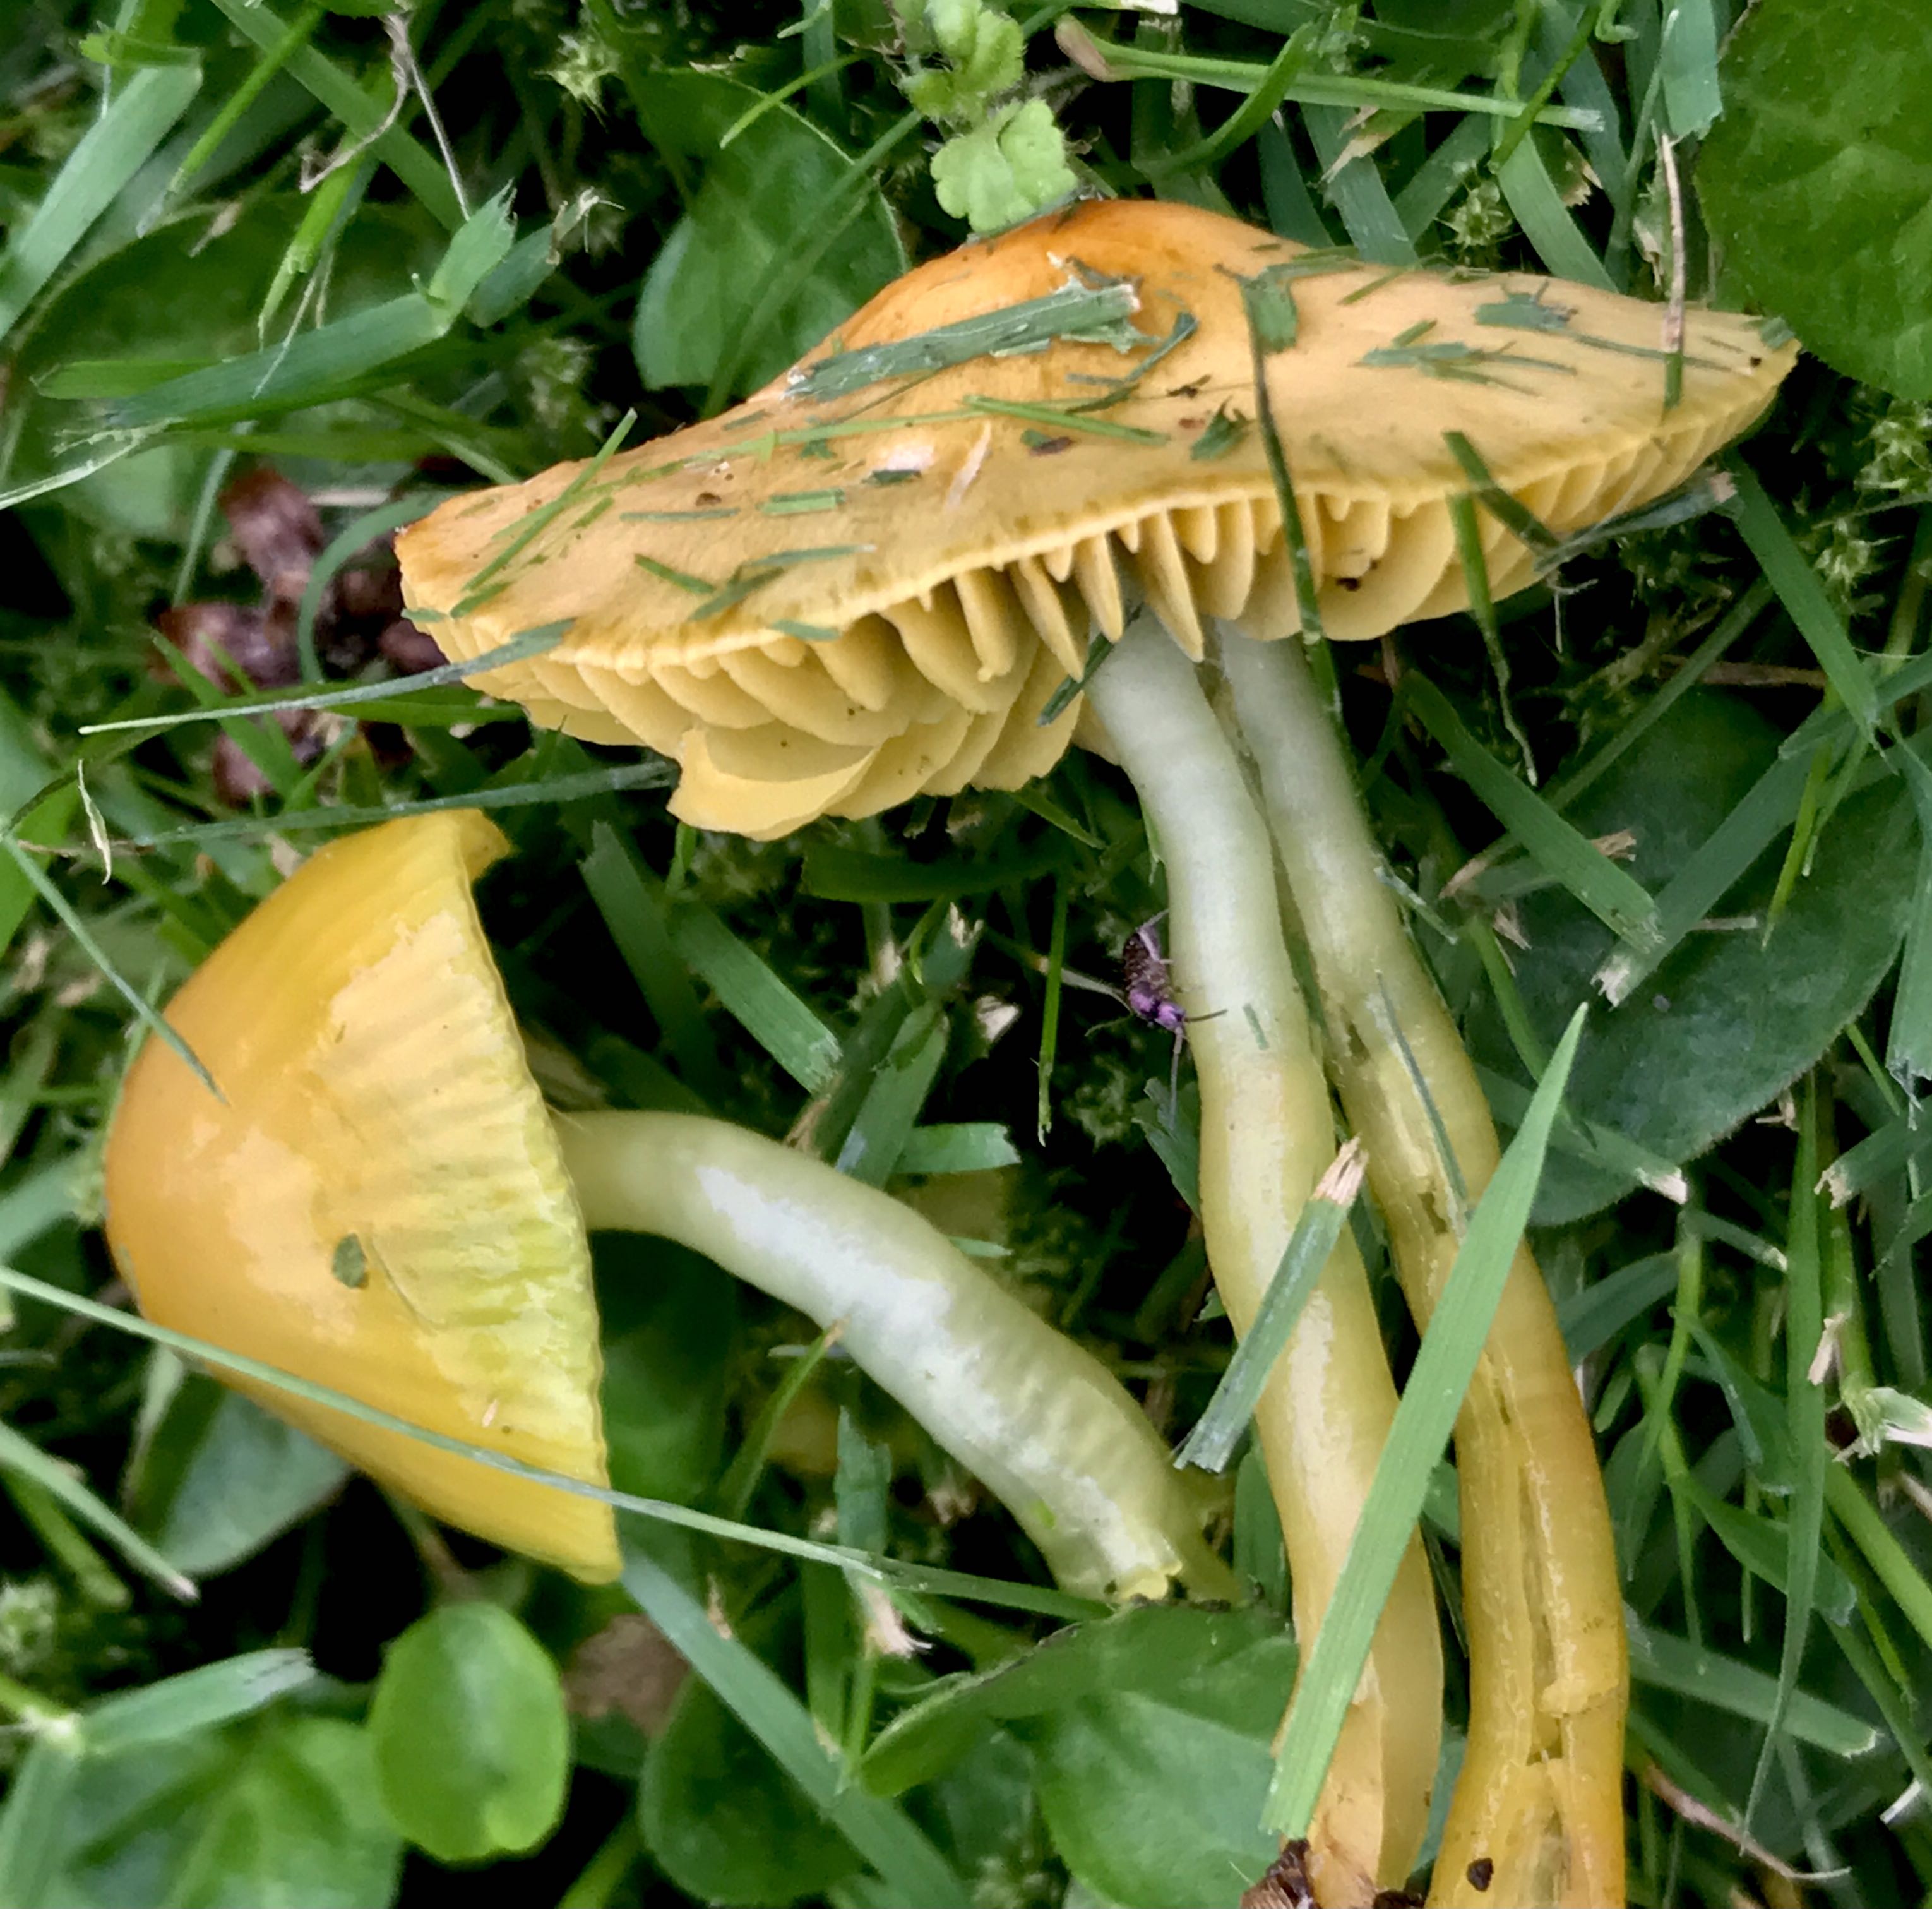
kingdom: Fungi
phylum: Basidiomycota
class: Agaricomycetes
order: Agaricales
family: Hygrophoraceae
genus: Gliophorus
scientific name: Gliophorus psittacinus
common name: papegøje-vokshat
